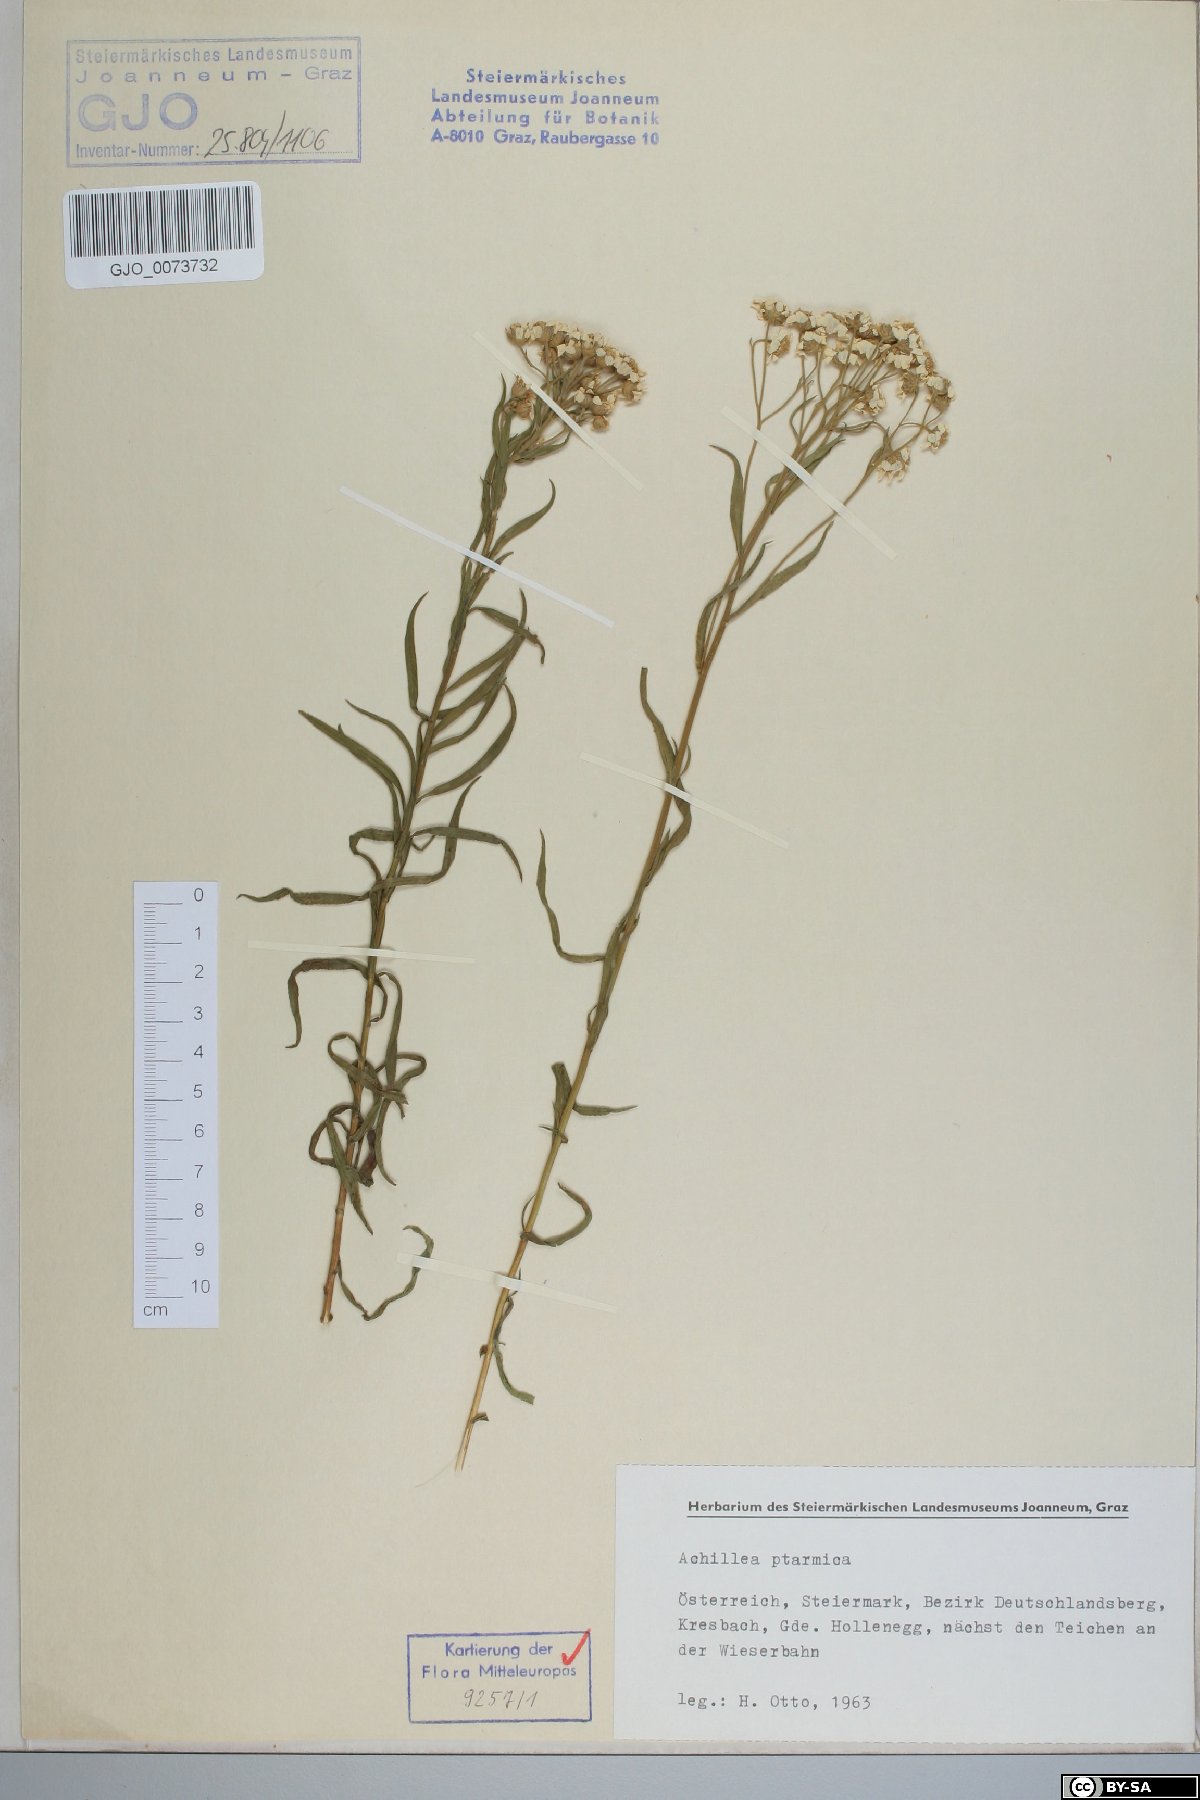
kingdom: Plantae
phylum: Tracheophyta
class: Magnoliopsida
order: Asterales
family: Asteraceae
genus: Achillea
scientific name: Achillea ptarmica
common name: Sneezeweed
